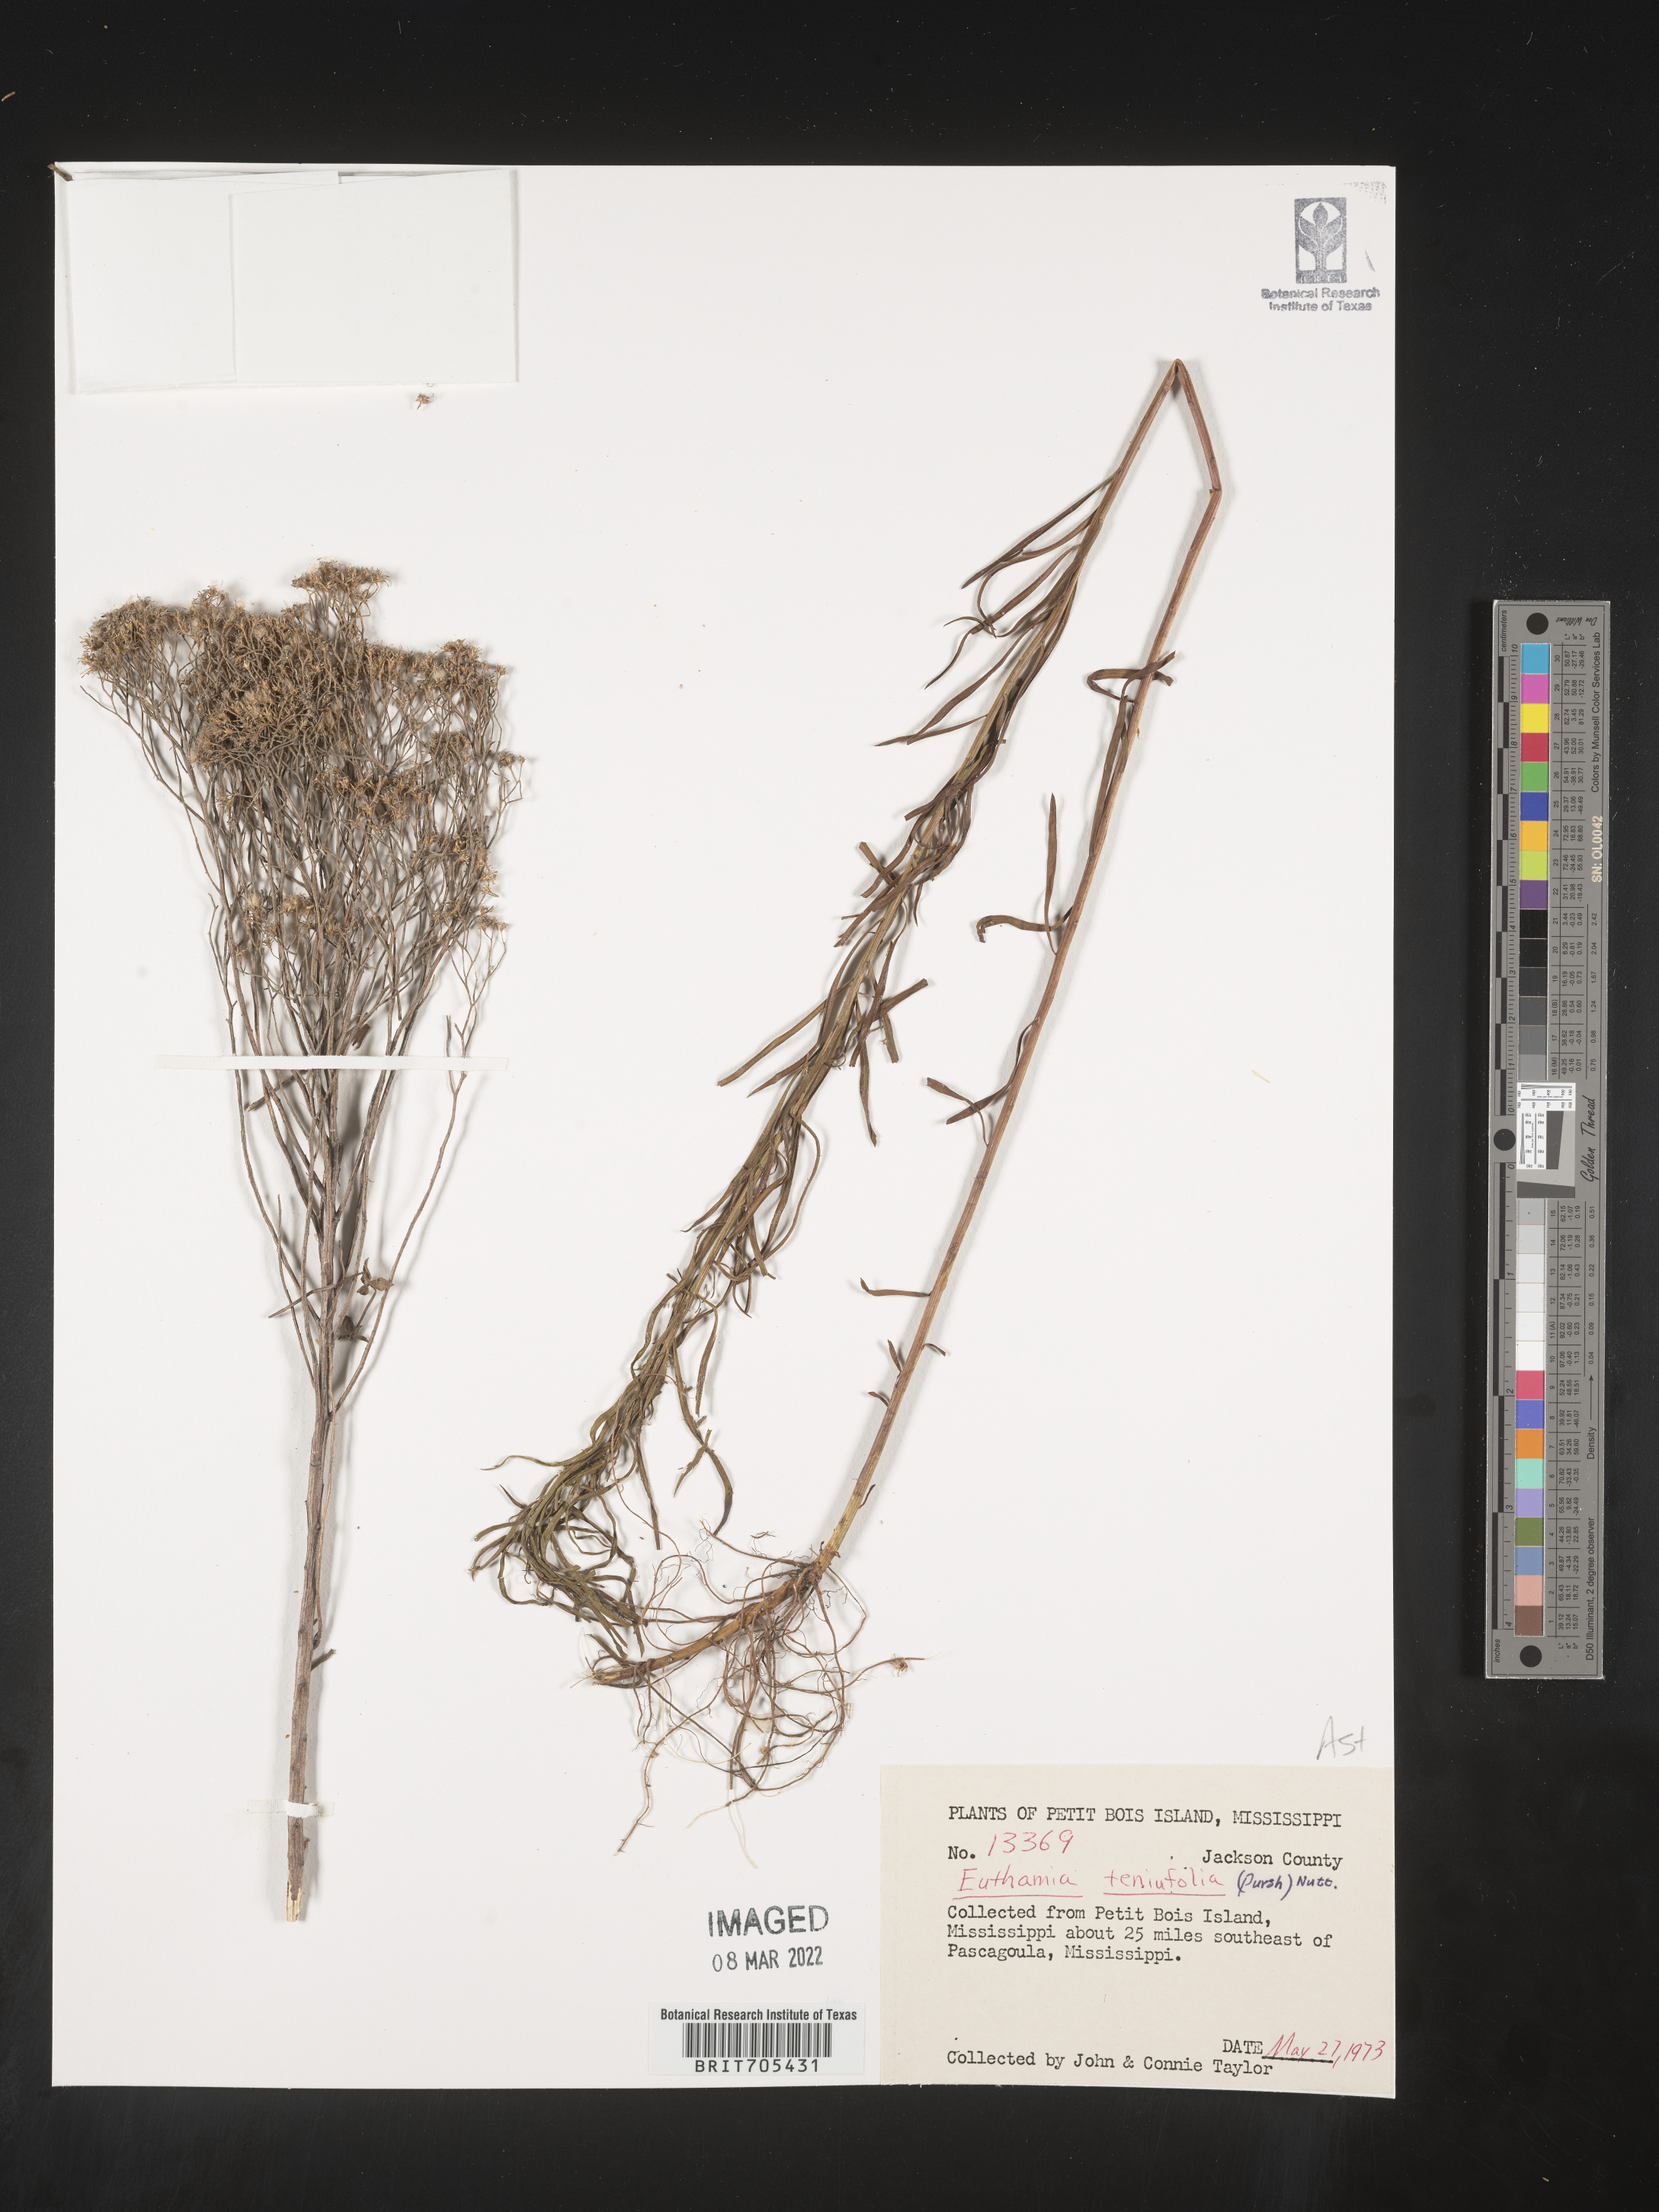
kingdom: Plantae
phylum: Tracheophyta
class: Magnoliopsida
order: Asterales
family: Asteraceae
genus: Euthamia
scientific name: Euthamia
